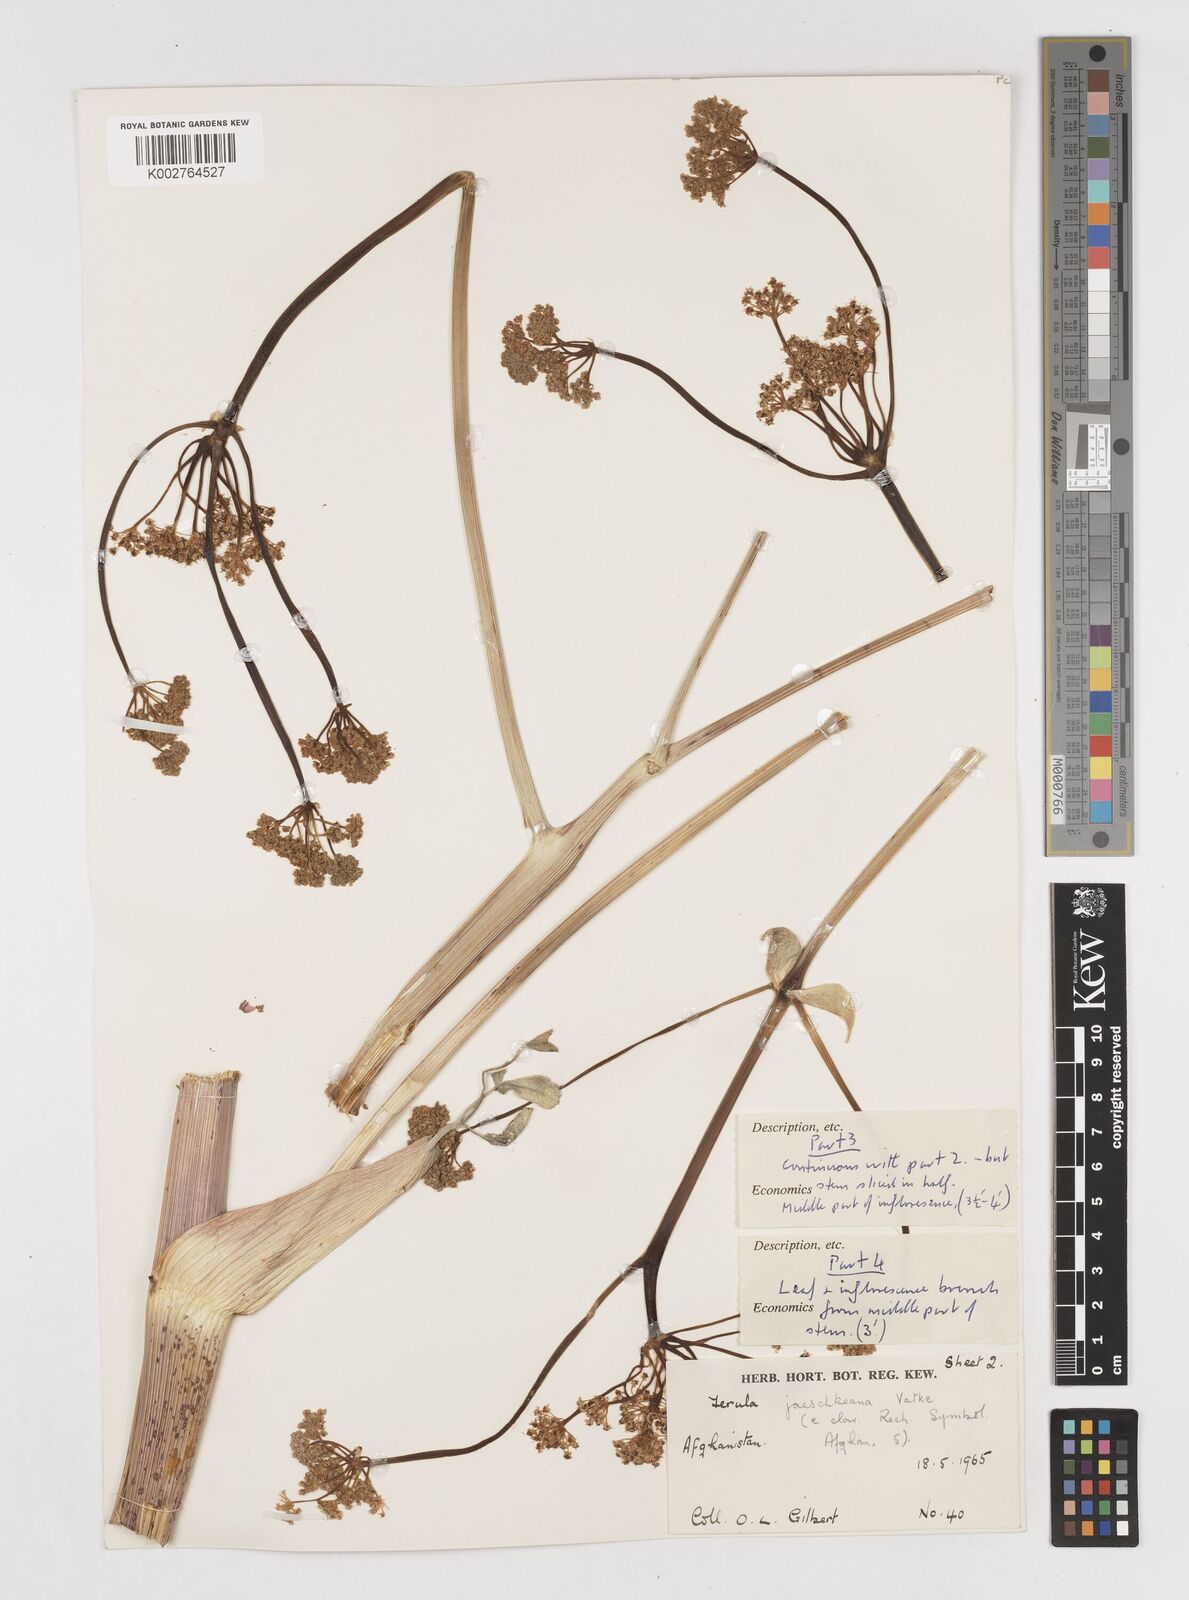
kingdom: Plantae
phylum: Tracheophyta
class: Magnoliopsida
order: Apiales
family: Apiaceae
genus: Ferula
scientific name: Ferula jaeschkeana
